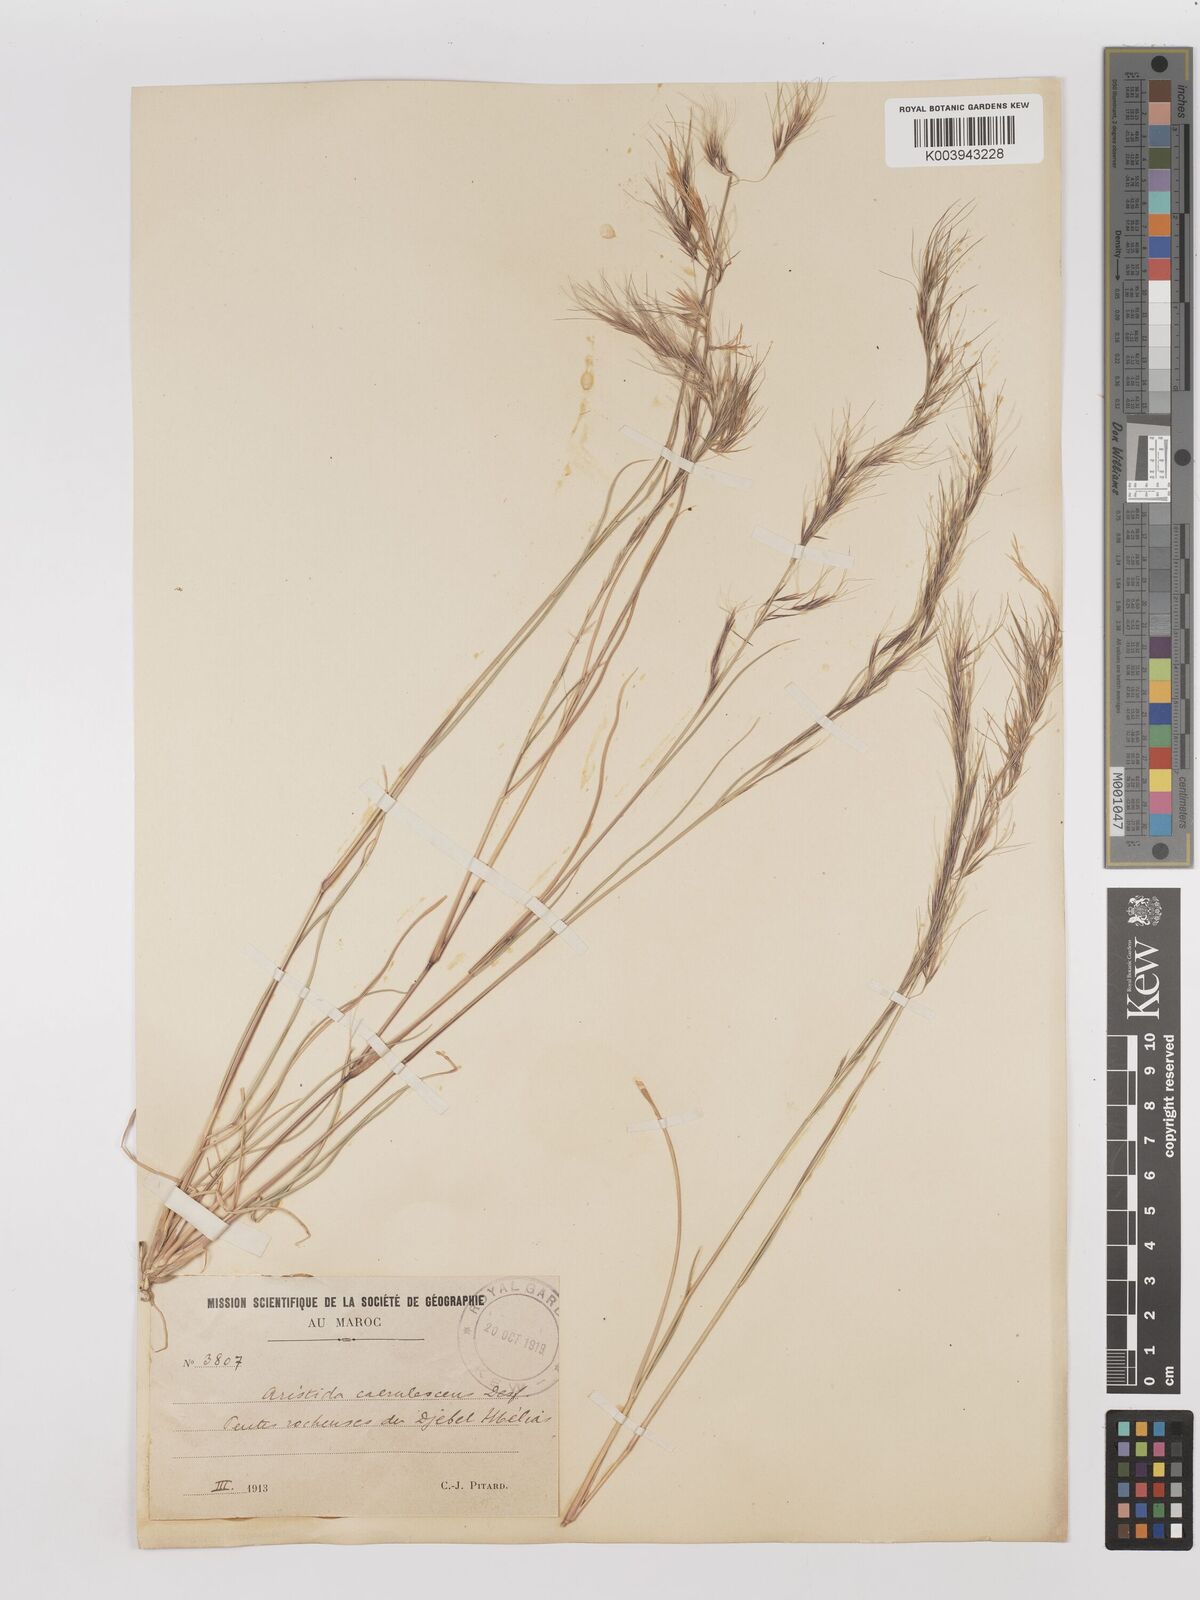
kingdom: Plantae
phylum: Tracheophyta
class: Liliopsida
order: Poales
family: Poaceae
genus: Aristida
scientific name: Aristida adscensionis
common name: Sixweeks threeawn
